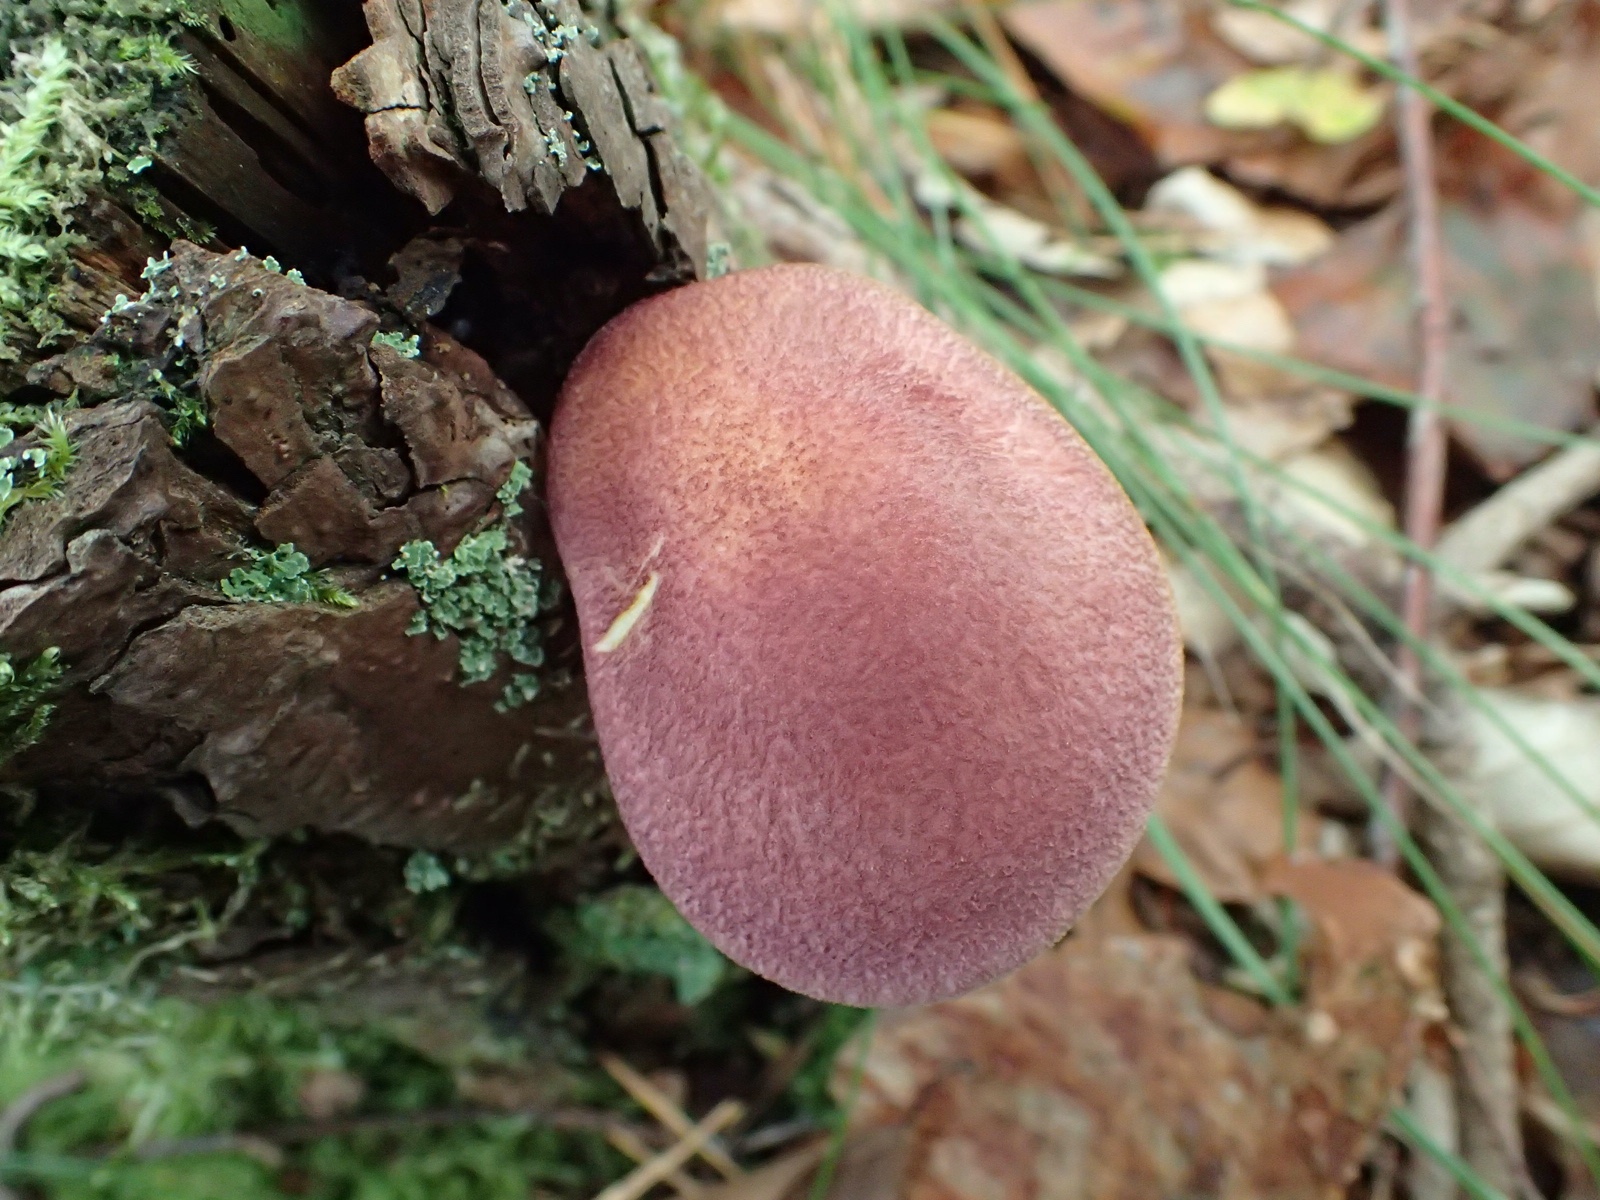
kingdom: Fungi
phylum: Basidiomycota
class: Agaricomycetes
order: Agaricales
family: Tricholomataceae
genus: Tricholomopsis
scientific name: Tricholomopsis rutilans
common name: purpur-væbnerhat
